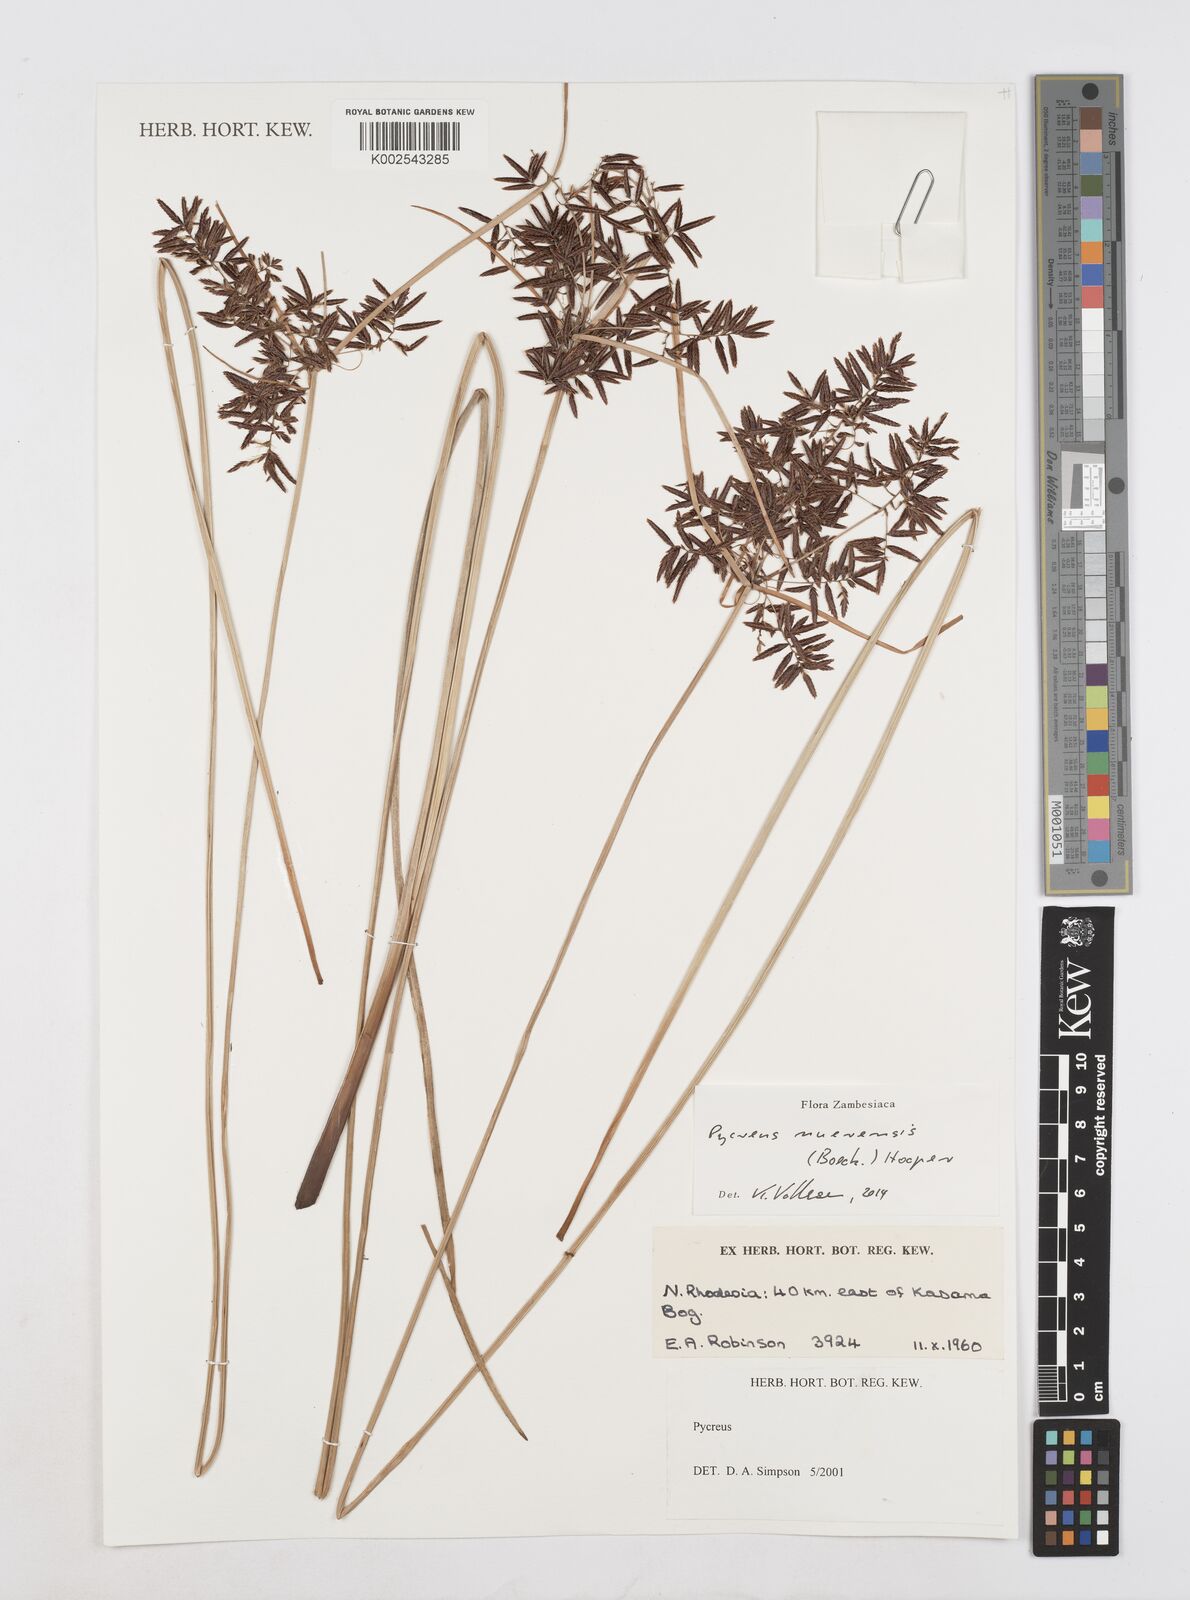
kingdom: Plantae
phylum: Tracheophyta
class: Liliopsida
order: Poales
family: Cyperaceae
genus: Cyperus
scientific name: Cyperus nuerensis
